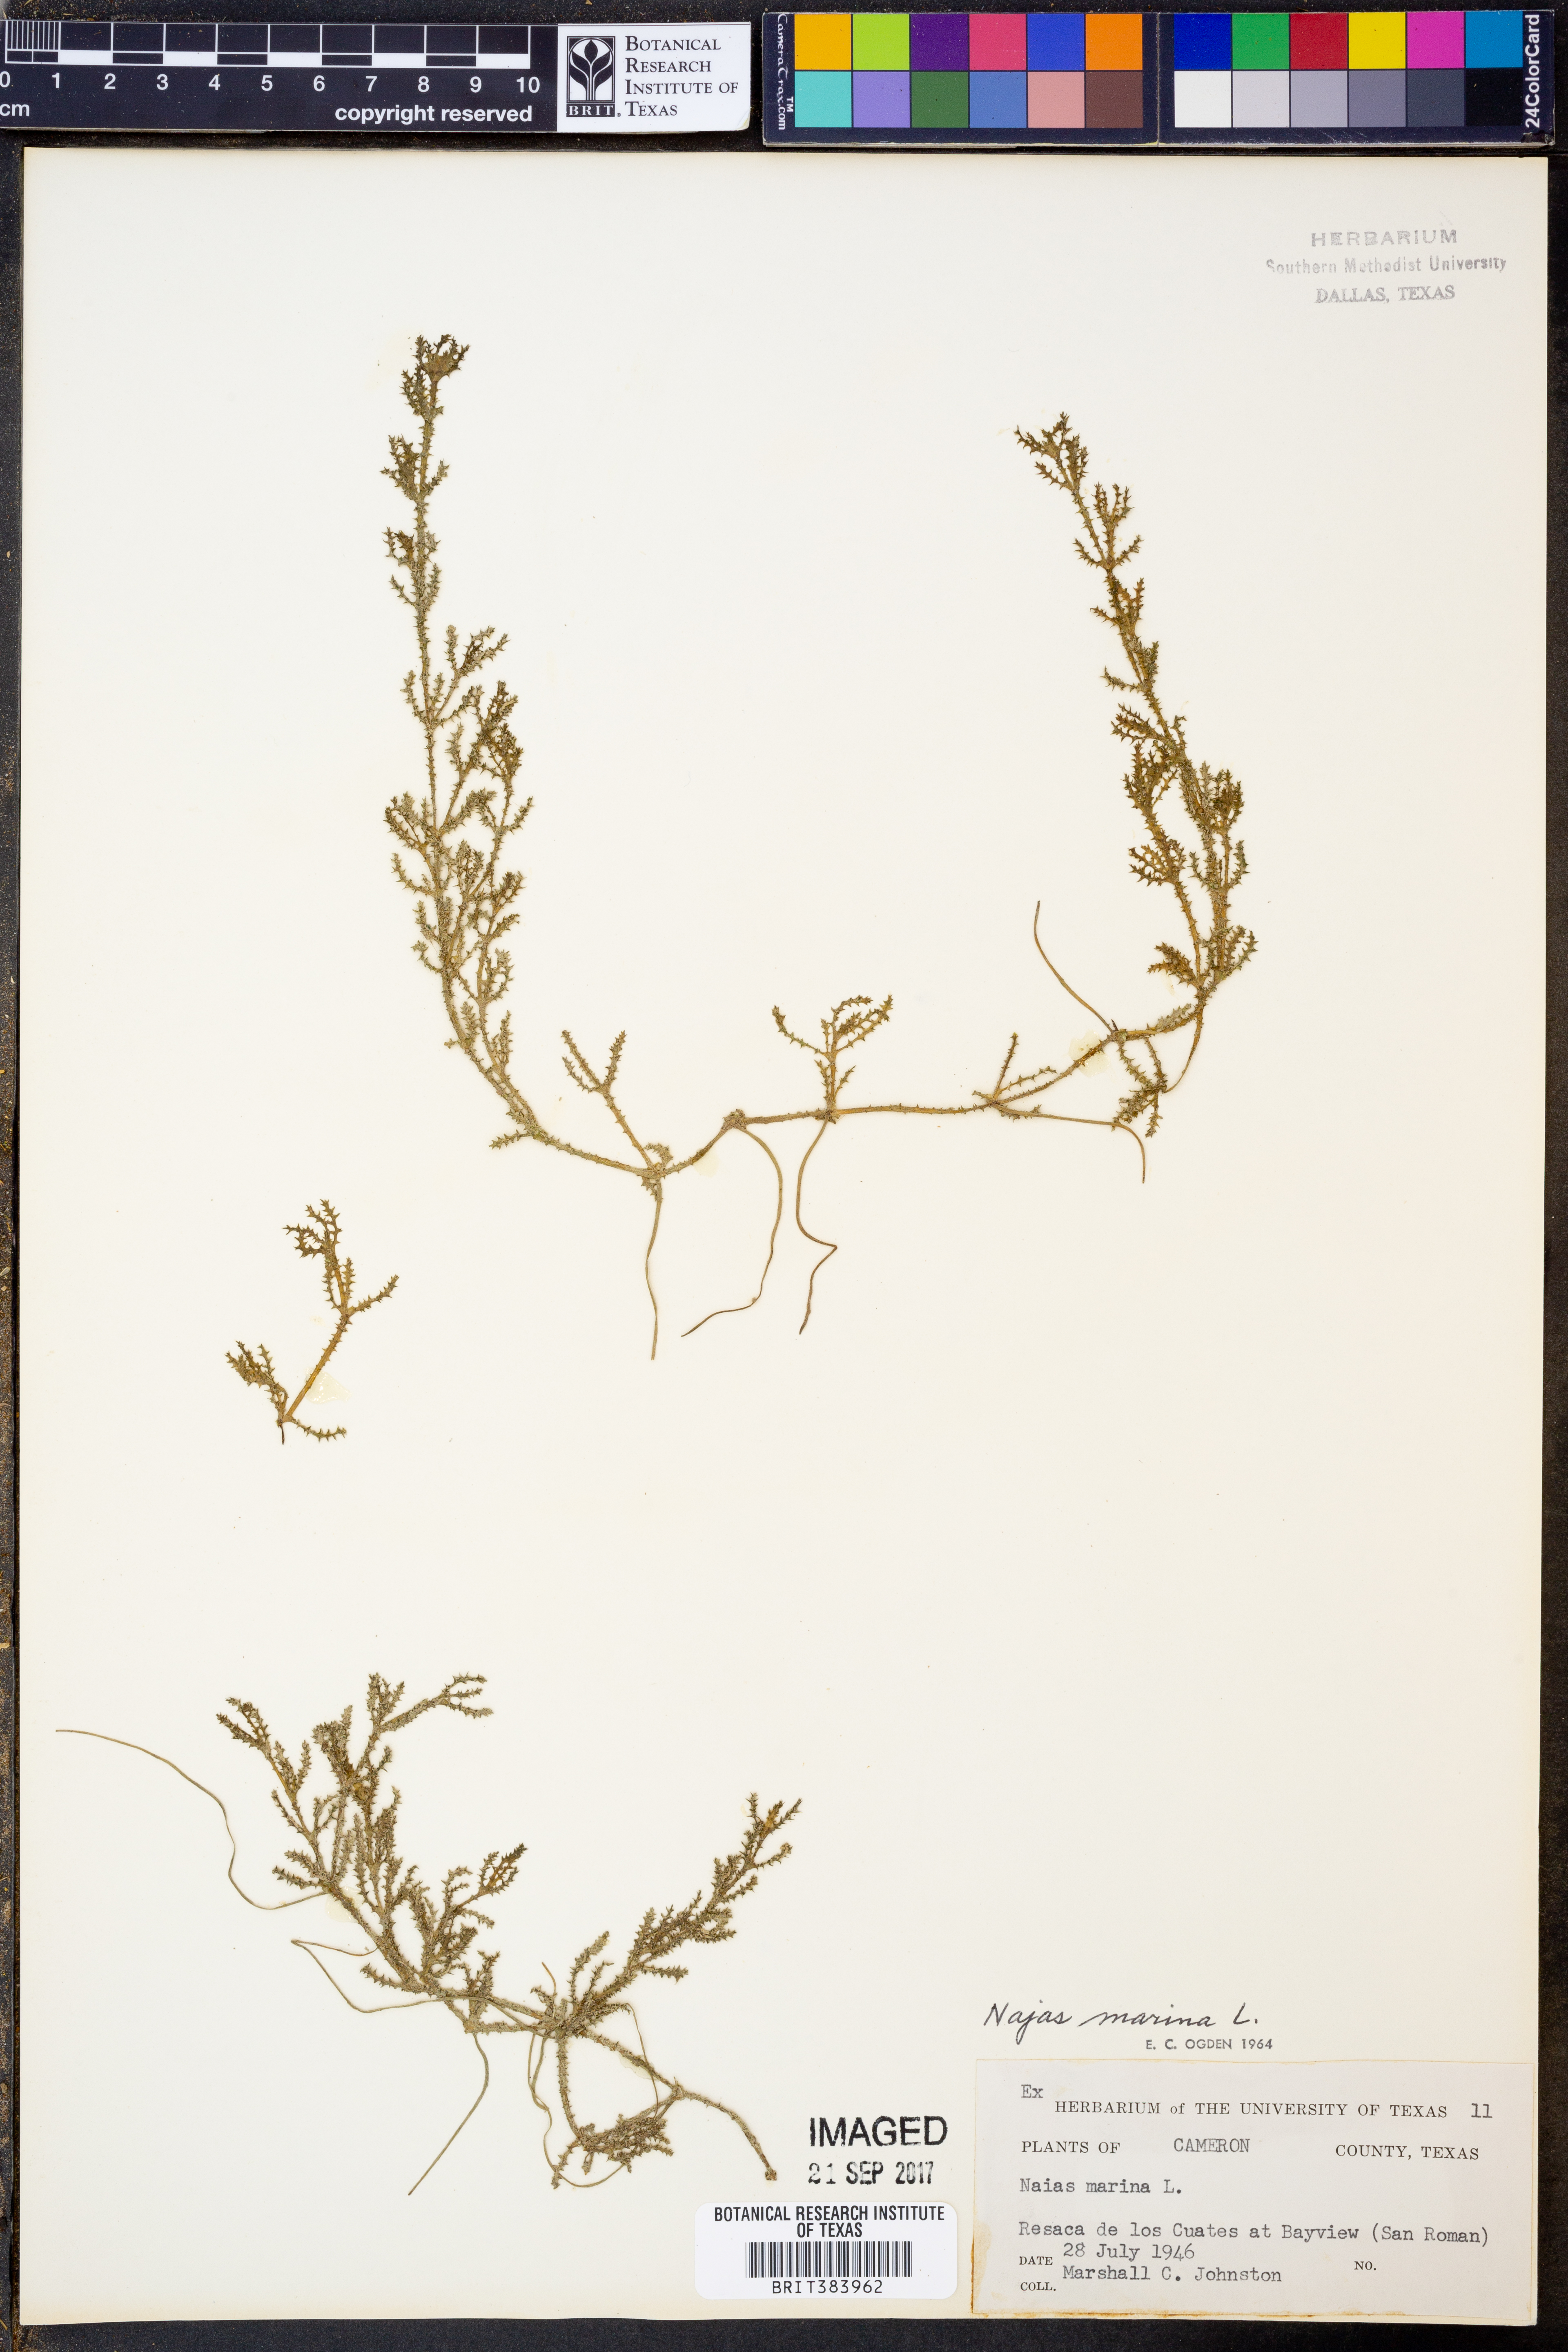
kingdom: Plantae
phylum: Tracheophyta
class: Liliopsida
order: Alismatales
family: Hydrocharitaceae
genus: Najas
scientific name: Najas marina
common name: Holly-leaved naiad
